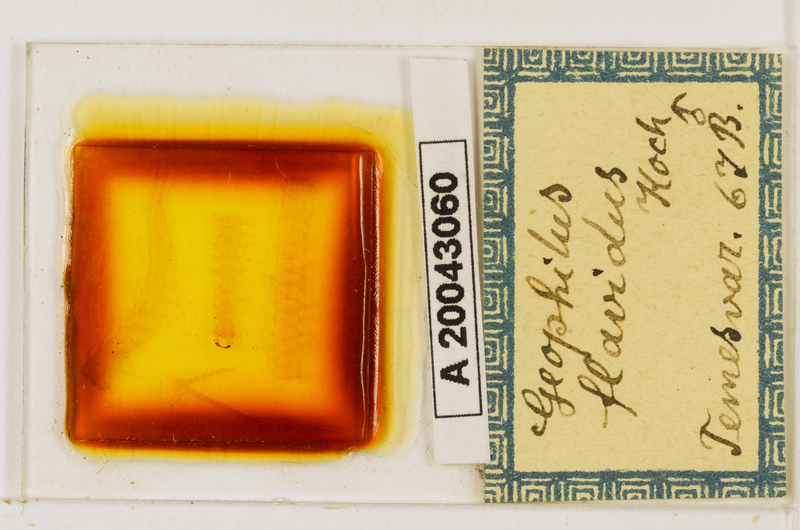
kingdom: Animalia
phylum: Arthropoda
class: Chilopoda
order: Geophilomorpha
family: Geophilidae
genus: Clinopodes
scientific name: Clinopodes flavidus
